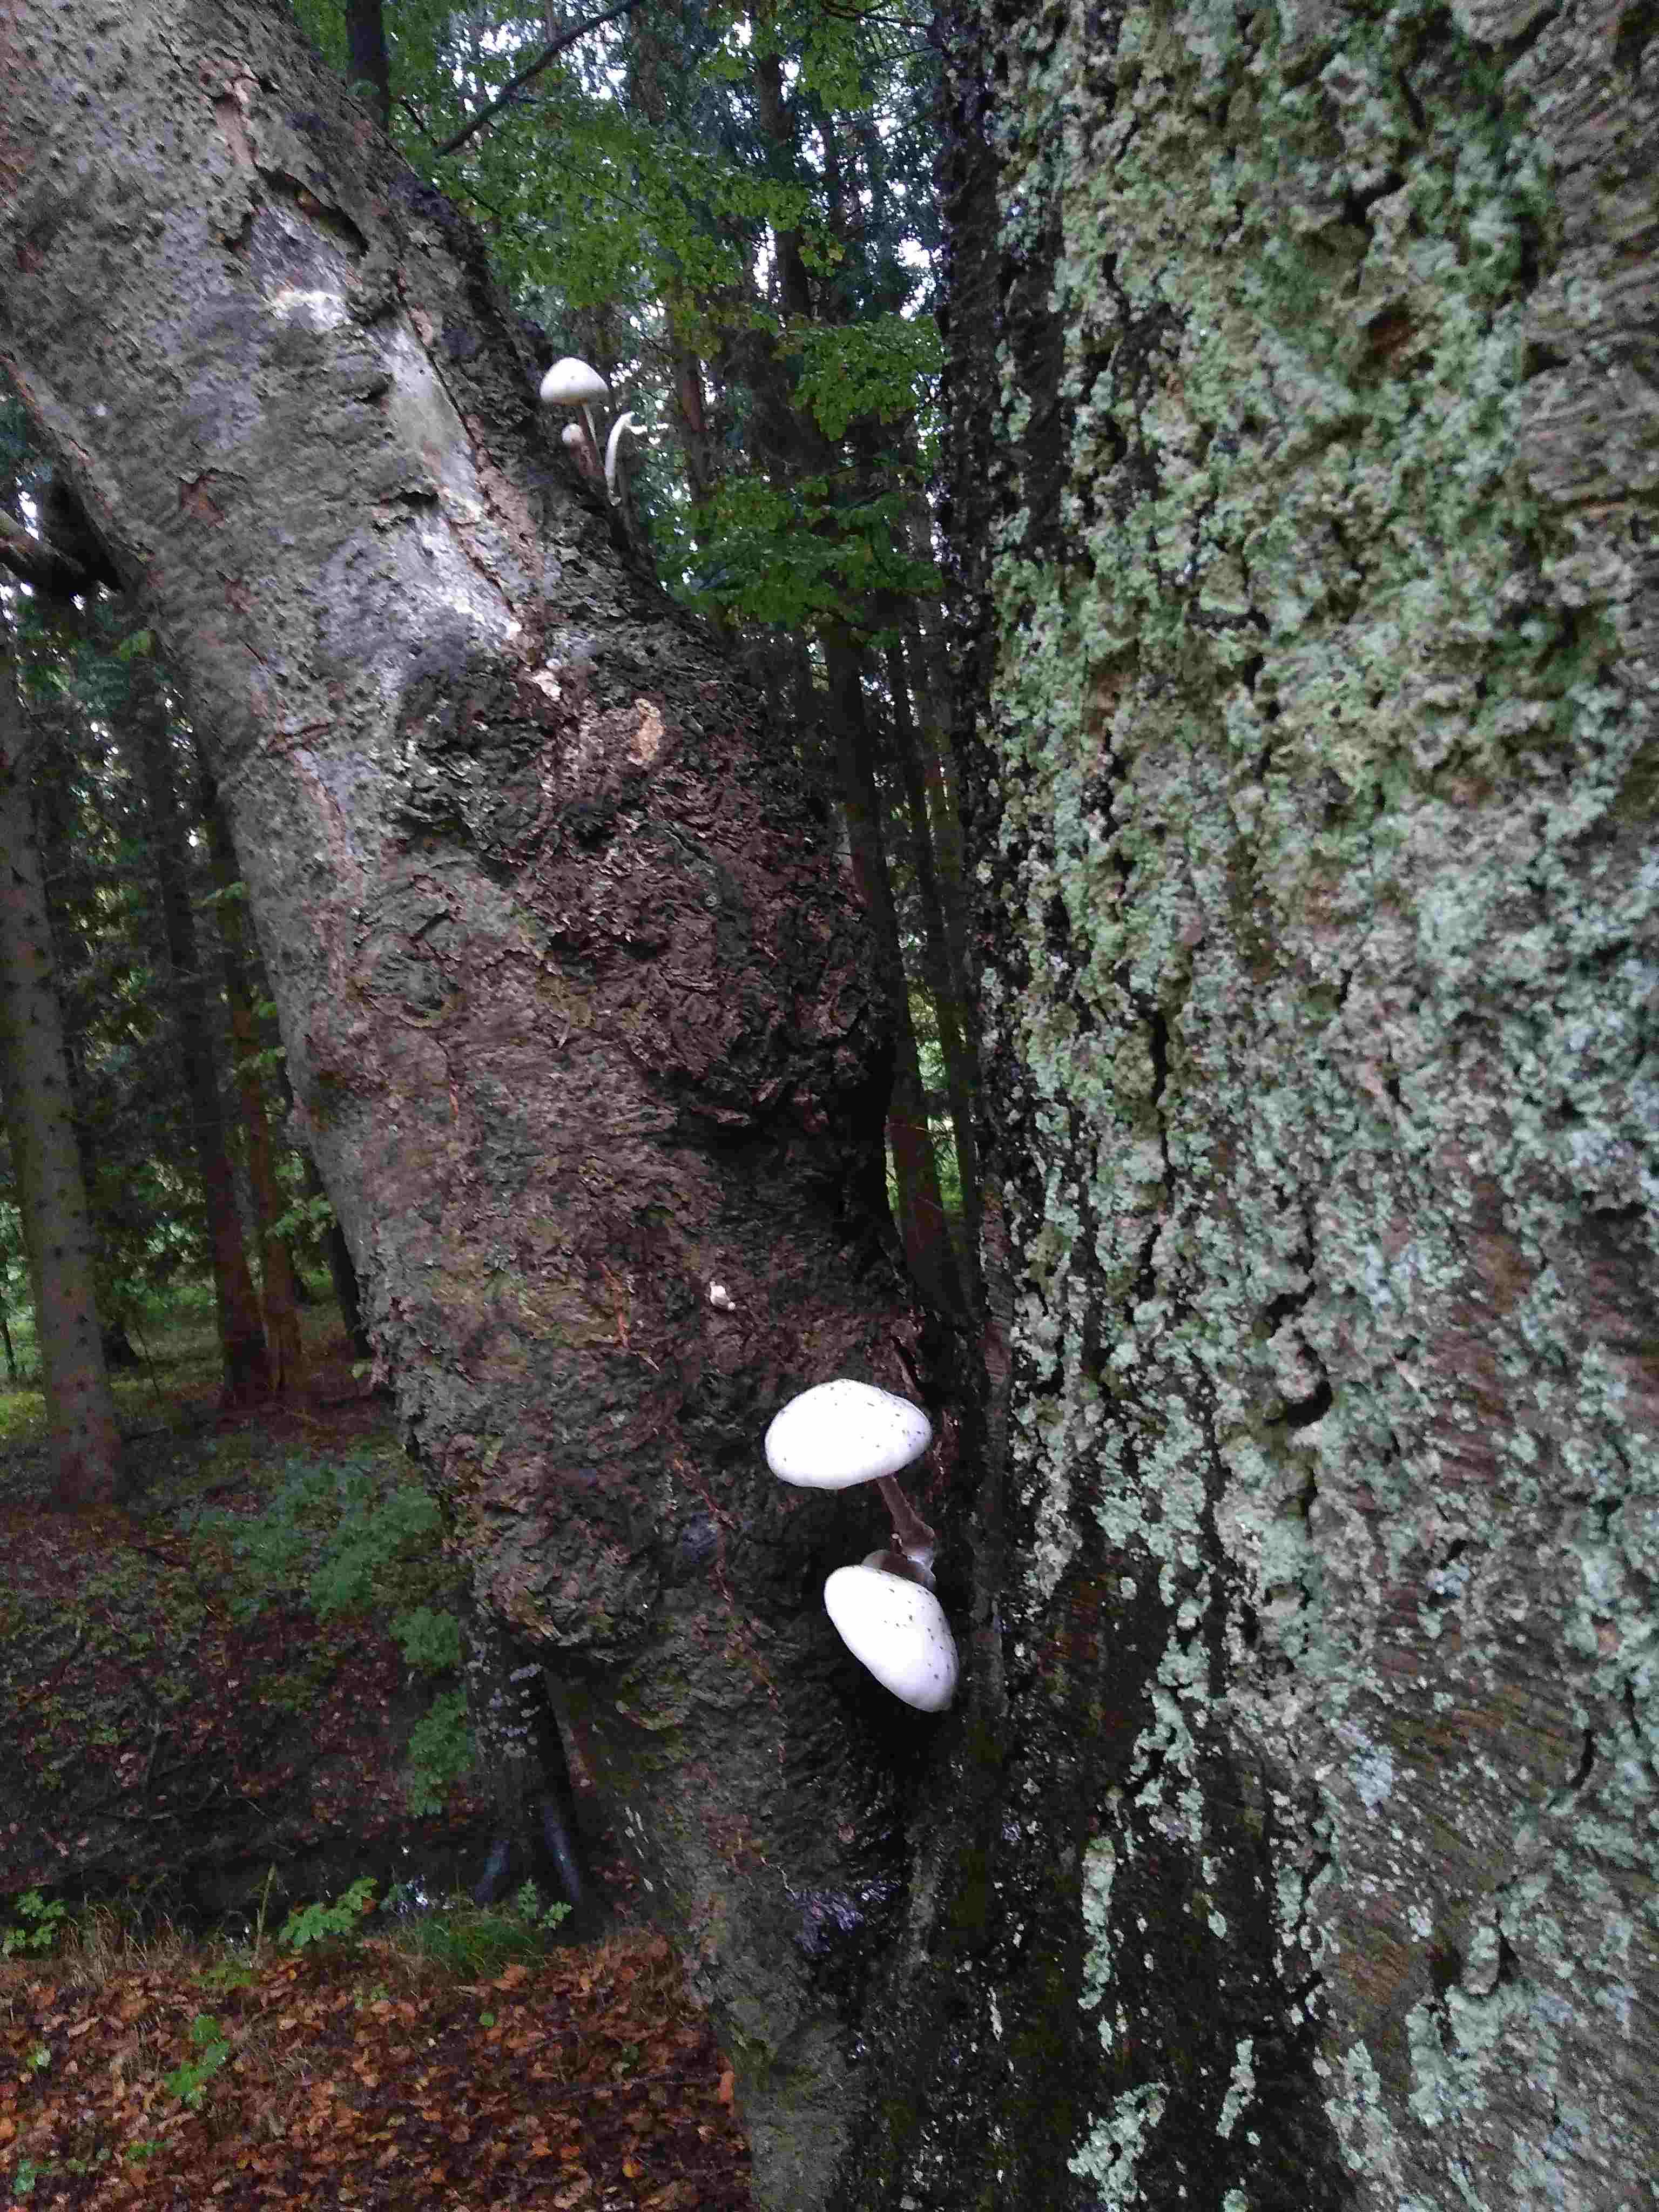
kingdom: Fungi
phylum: Basidiomycota
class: Agaricomycetes
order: Agaricales
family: Physalacriaceae
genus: Mucidula
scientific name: Mucidula mucida
